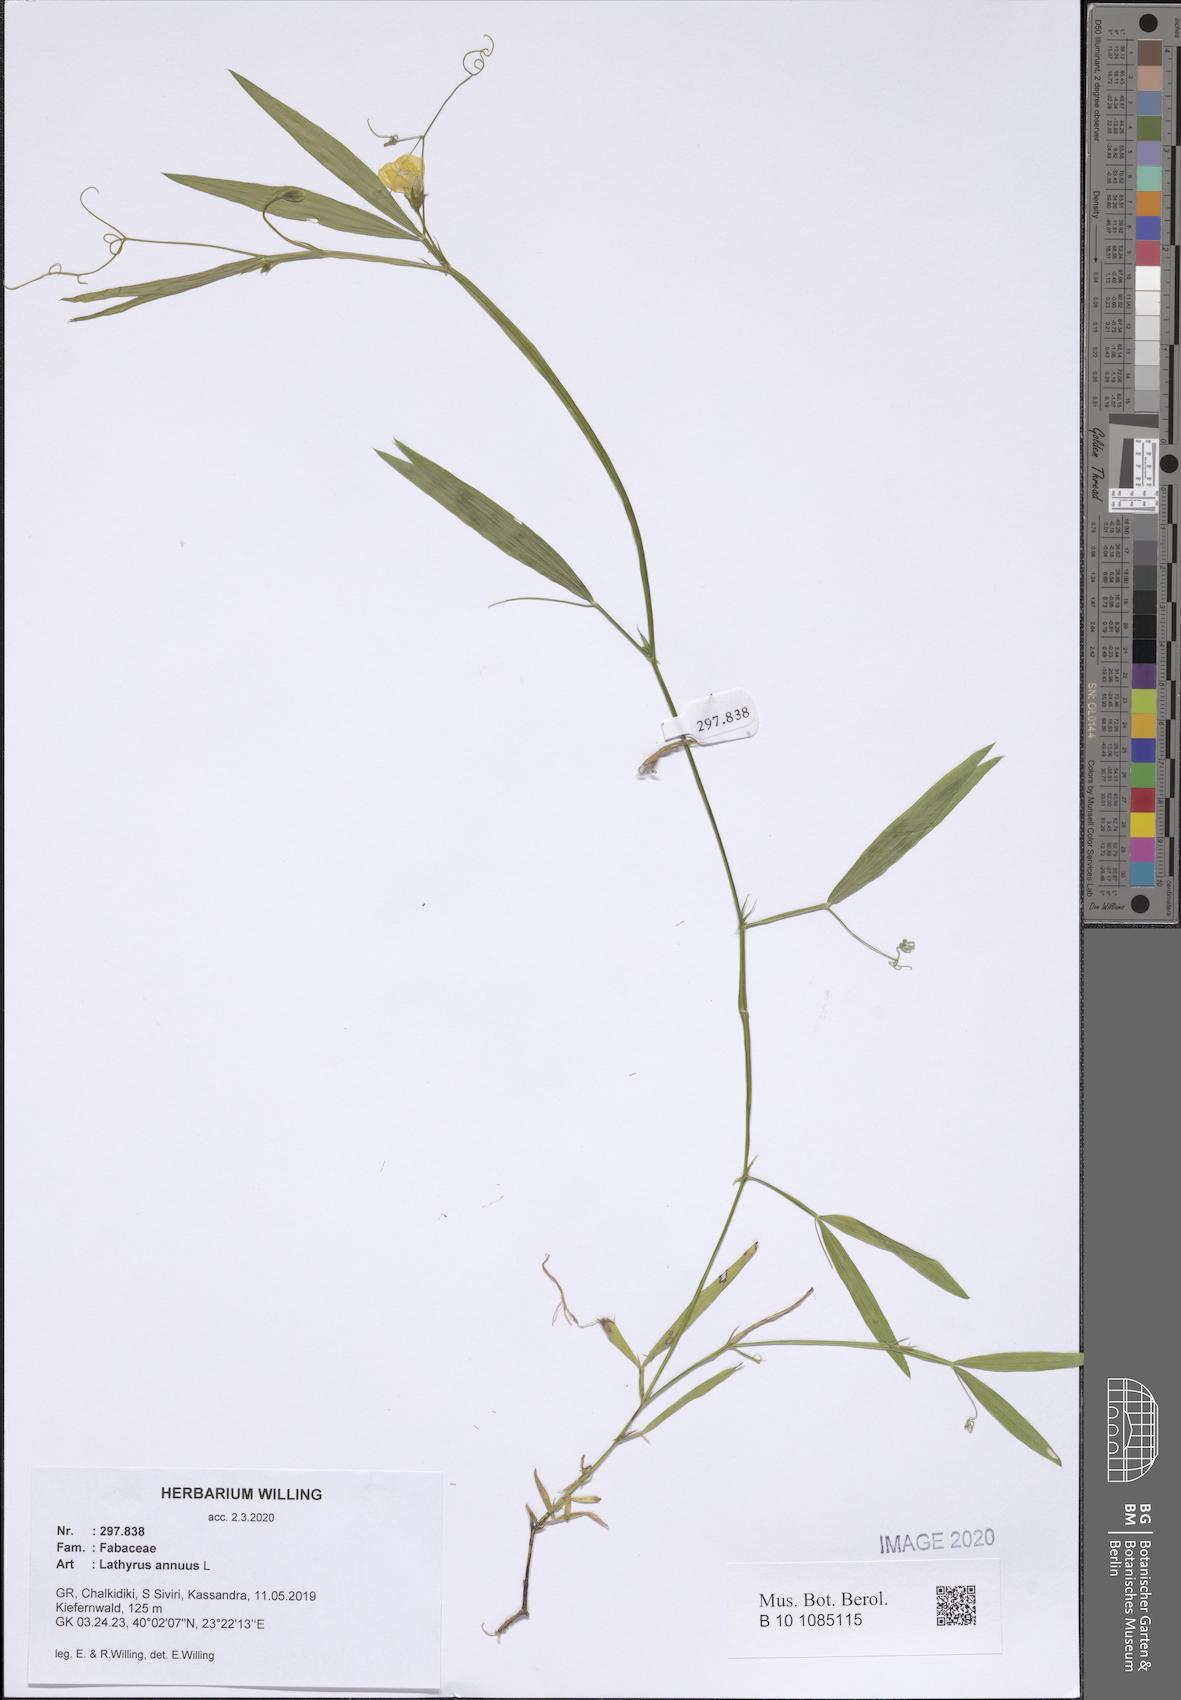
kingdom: Plantae
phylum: Tracheophyta
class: Magnoliopsida
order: Fabales
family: Fabaceae
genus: Lathyrus
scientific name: Lathyrus annuus
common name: Fodder pea
